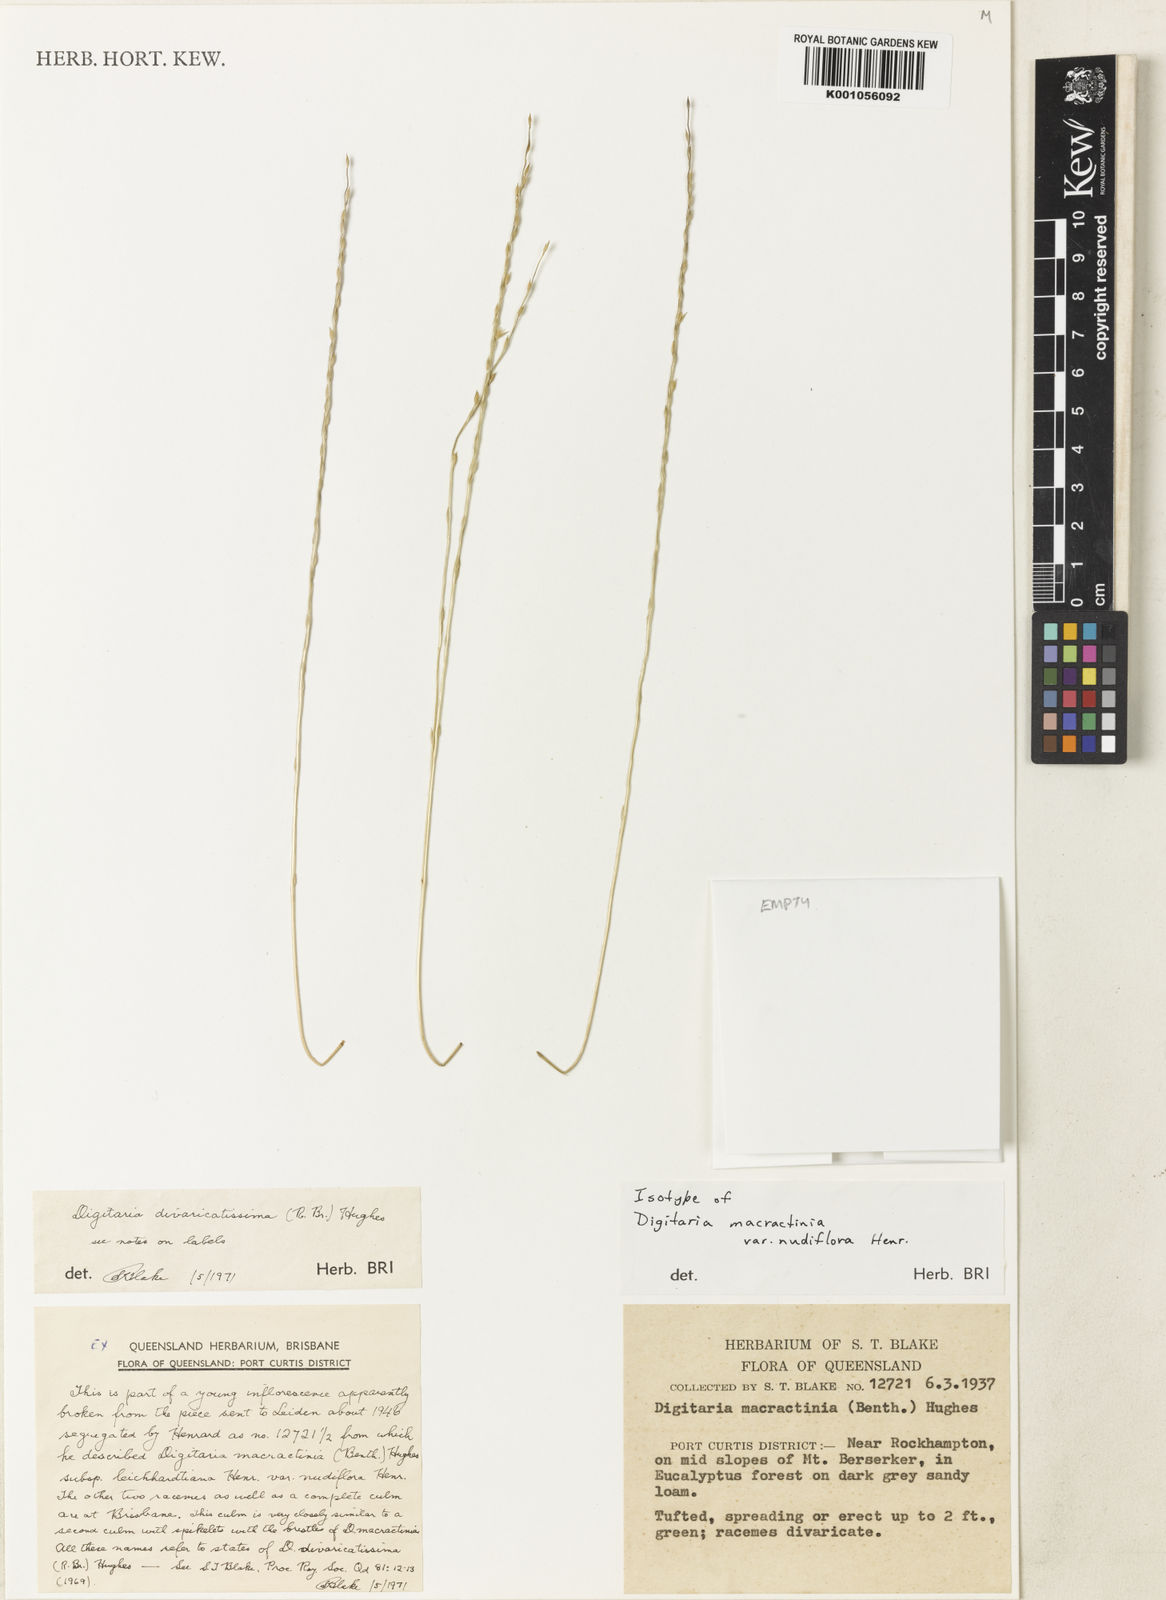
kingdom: Plantae
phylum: Tracheophyta
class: Liliopsida
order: Poales
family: Poaceae
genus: Digitaria
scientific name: Digitaria divaricatissima
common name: Crabgrass
